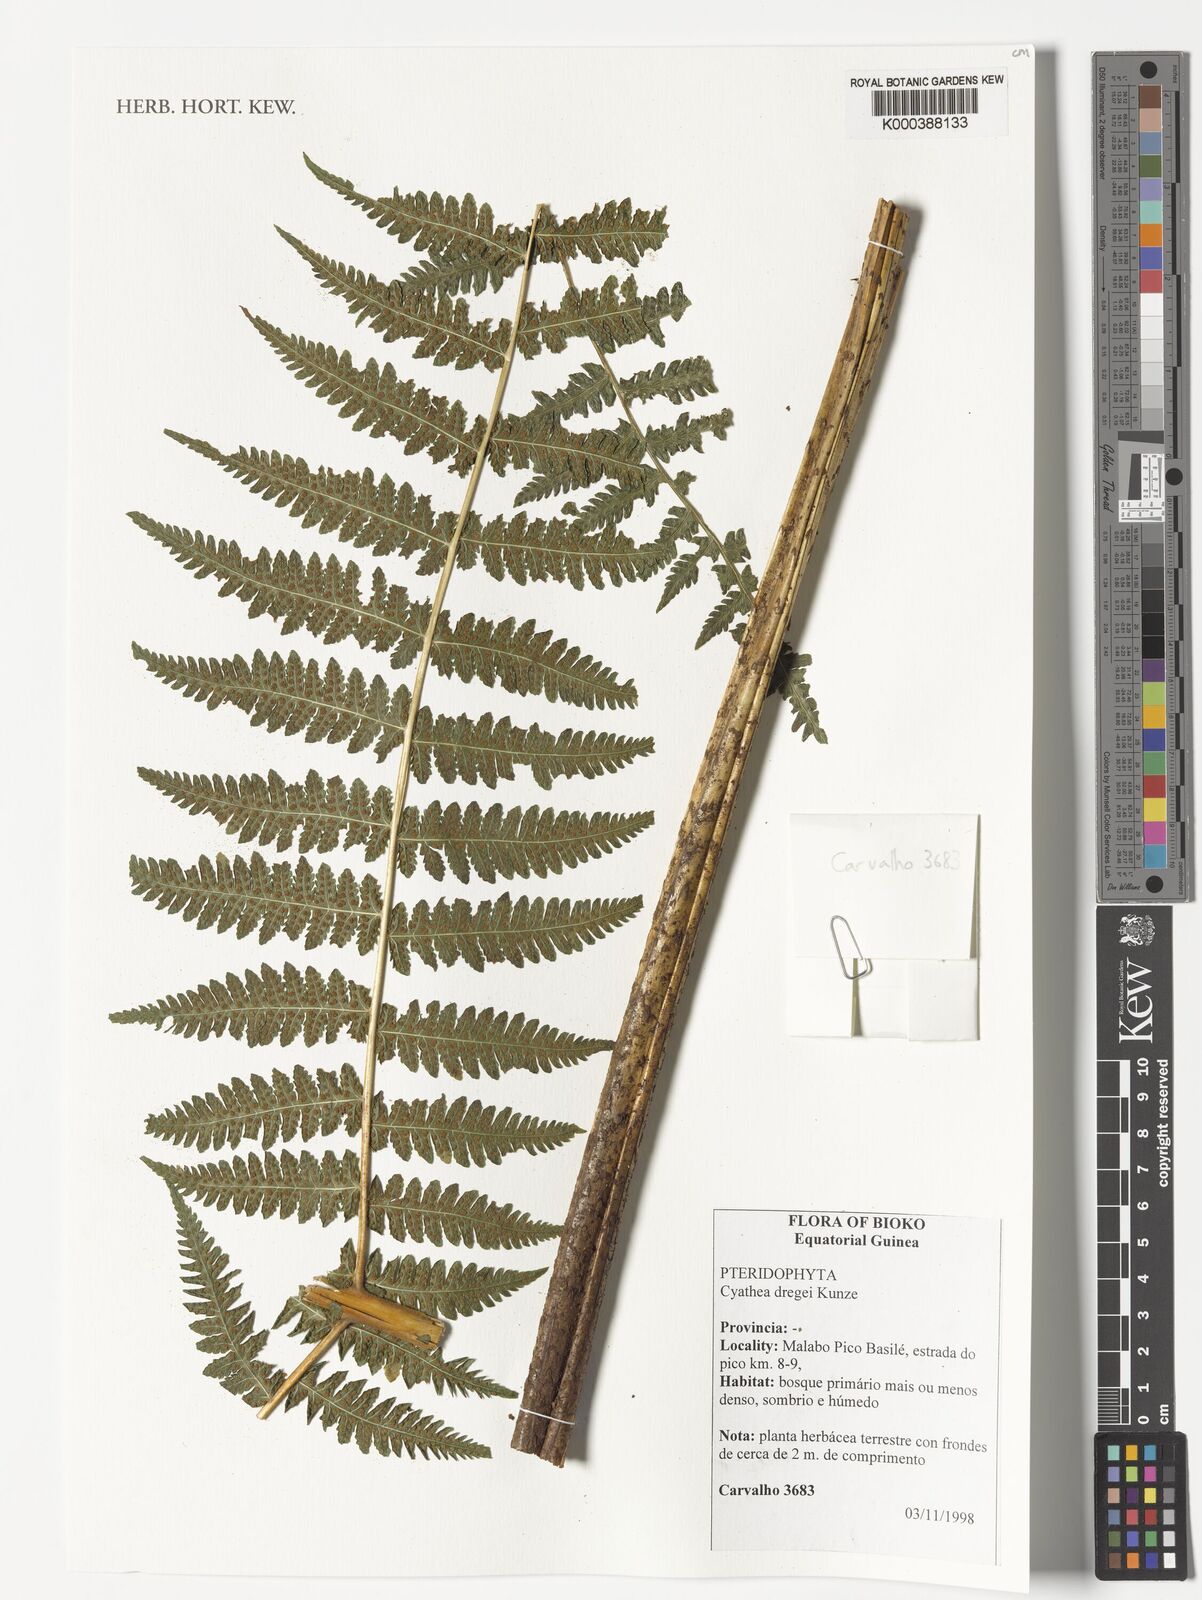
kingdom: Plantae
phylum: Tracheophyta
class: Polypodiopsida
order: Cyatheales
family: Cyatheaceae
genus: Alsophila
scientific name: Alsophila dregei
